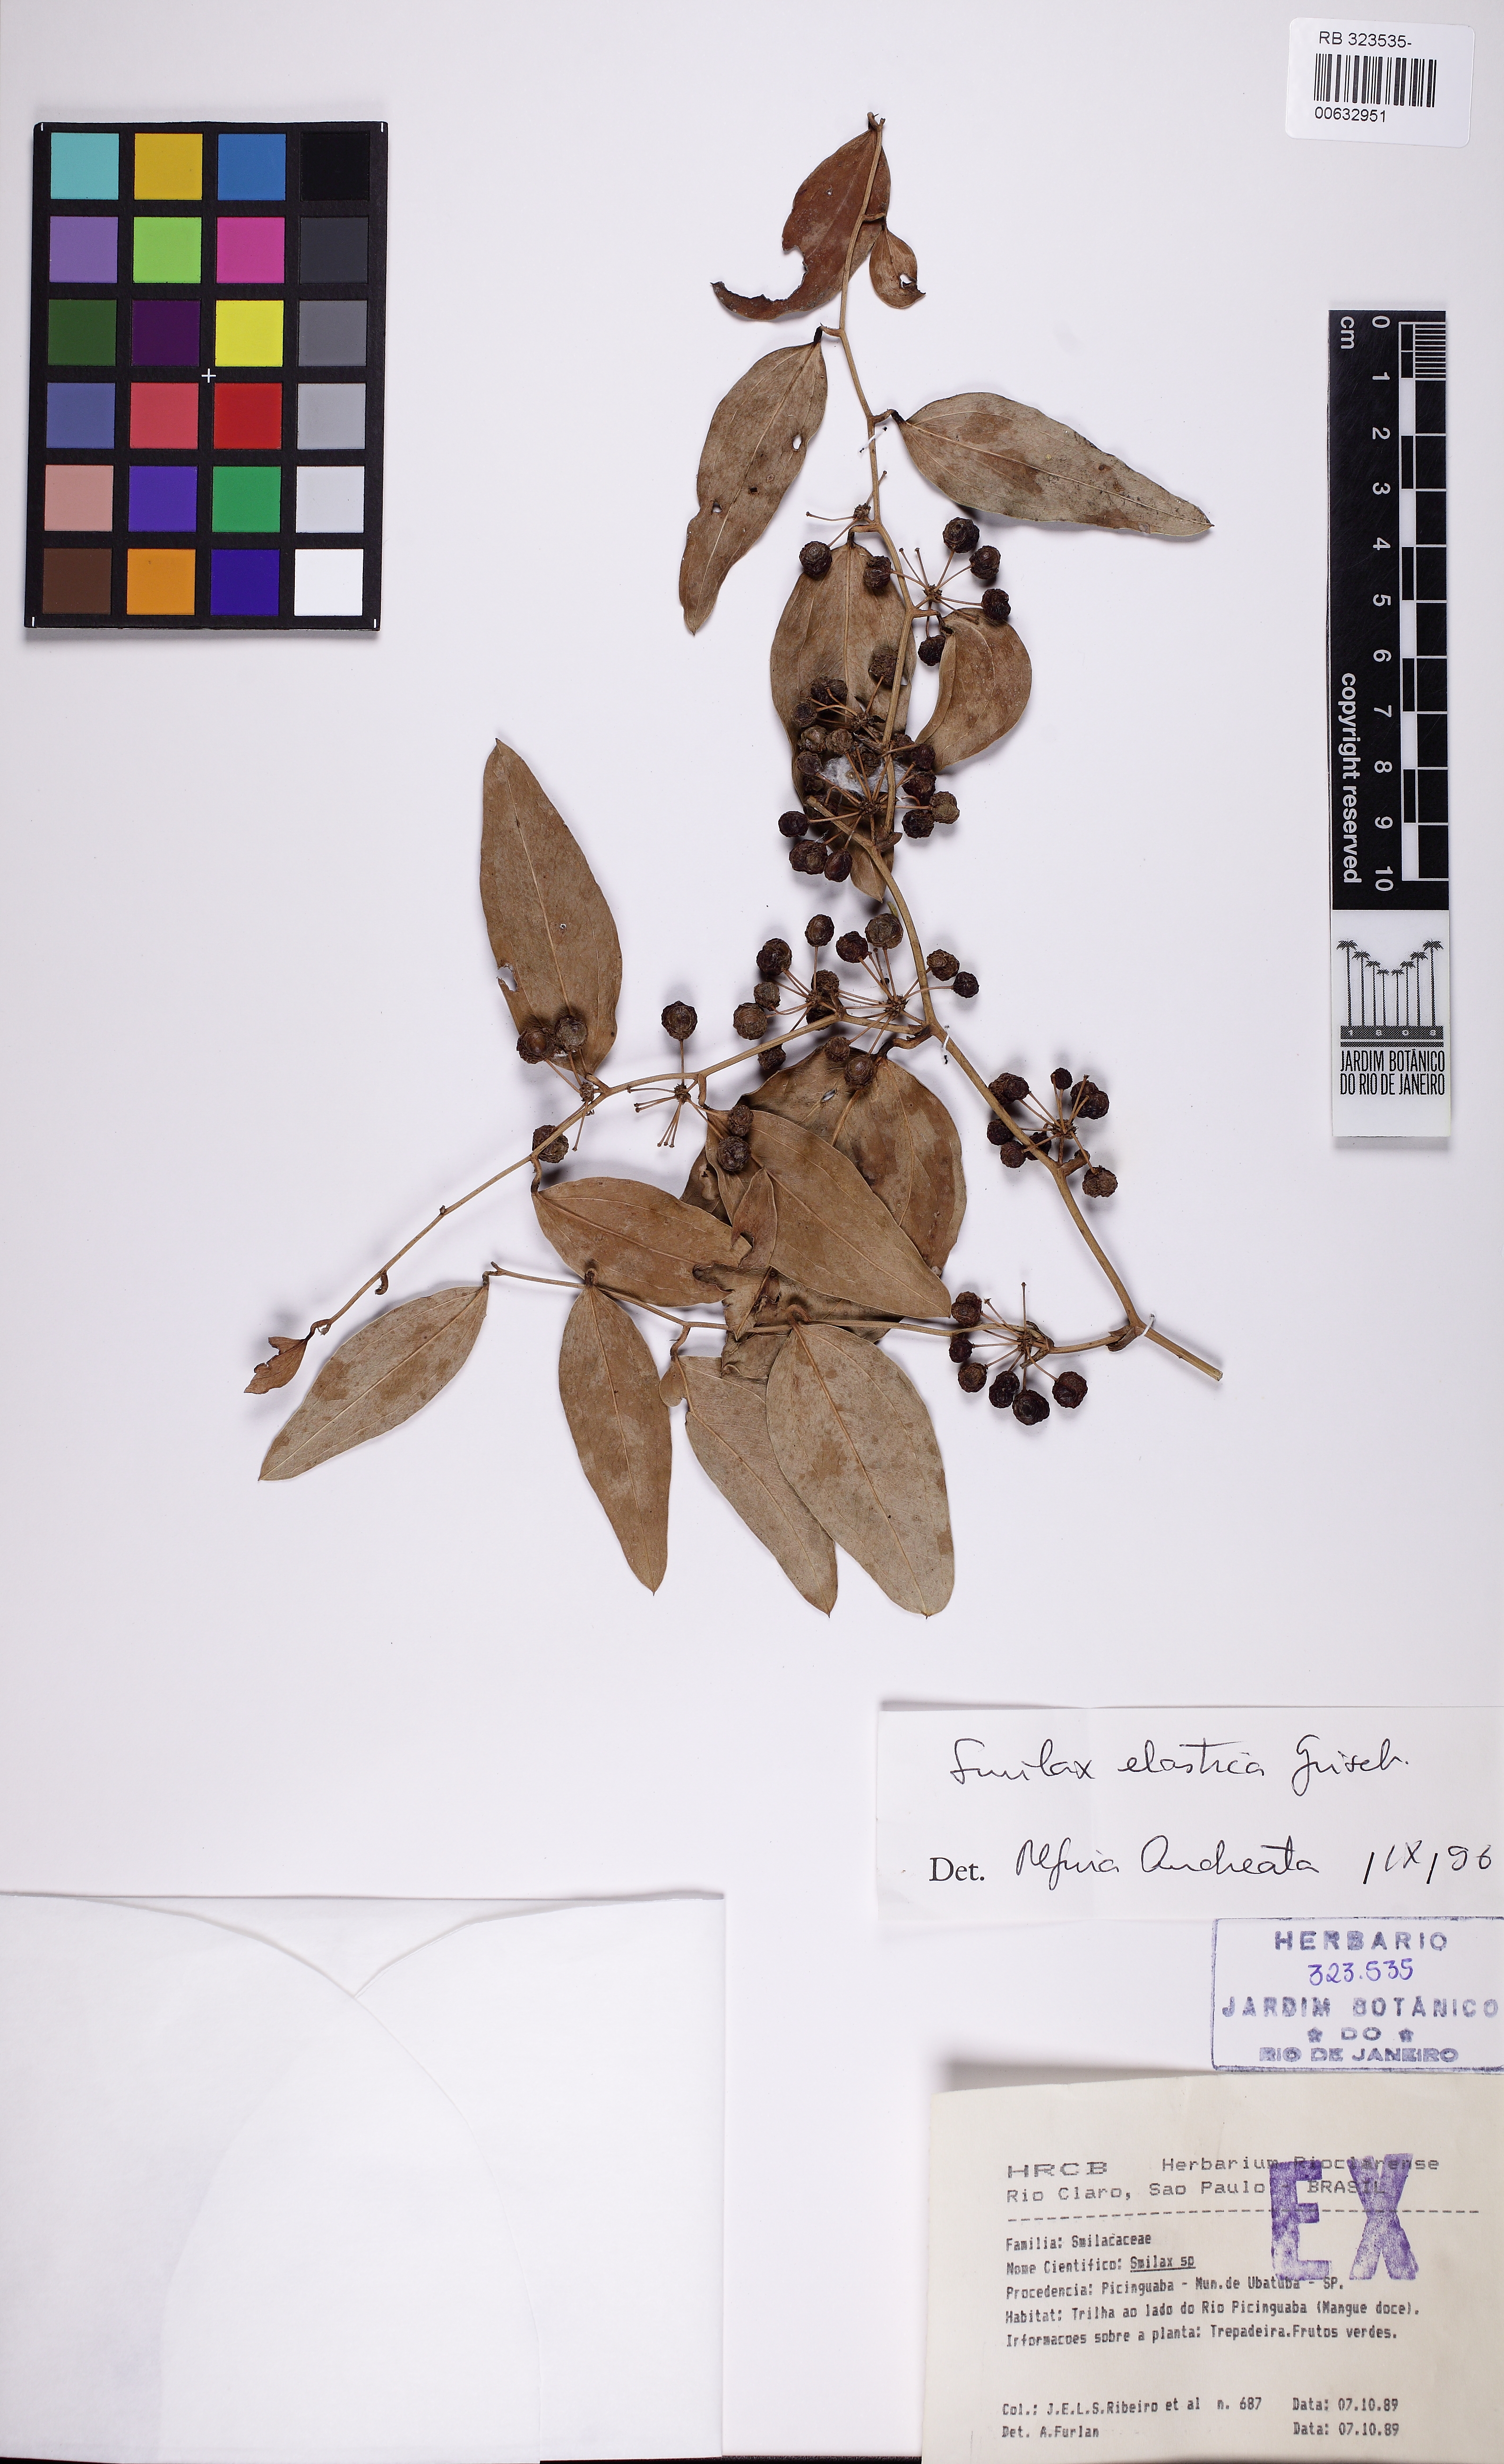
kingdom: Plantae
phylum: Tracheophyta
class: Liliopsida
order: Liliales
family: Smilacaceae
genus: Smilax
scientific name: Smilax elastica
